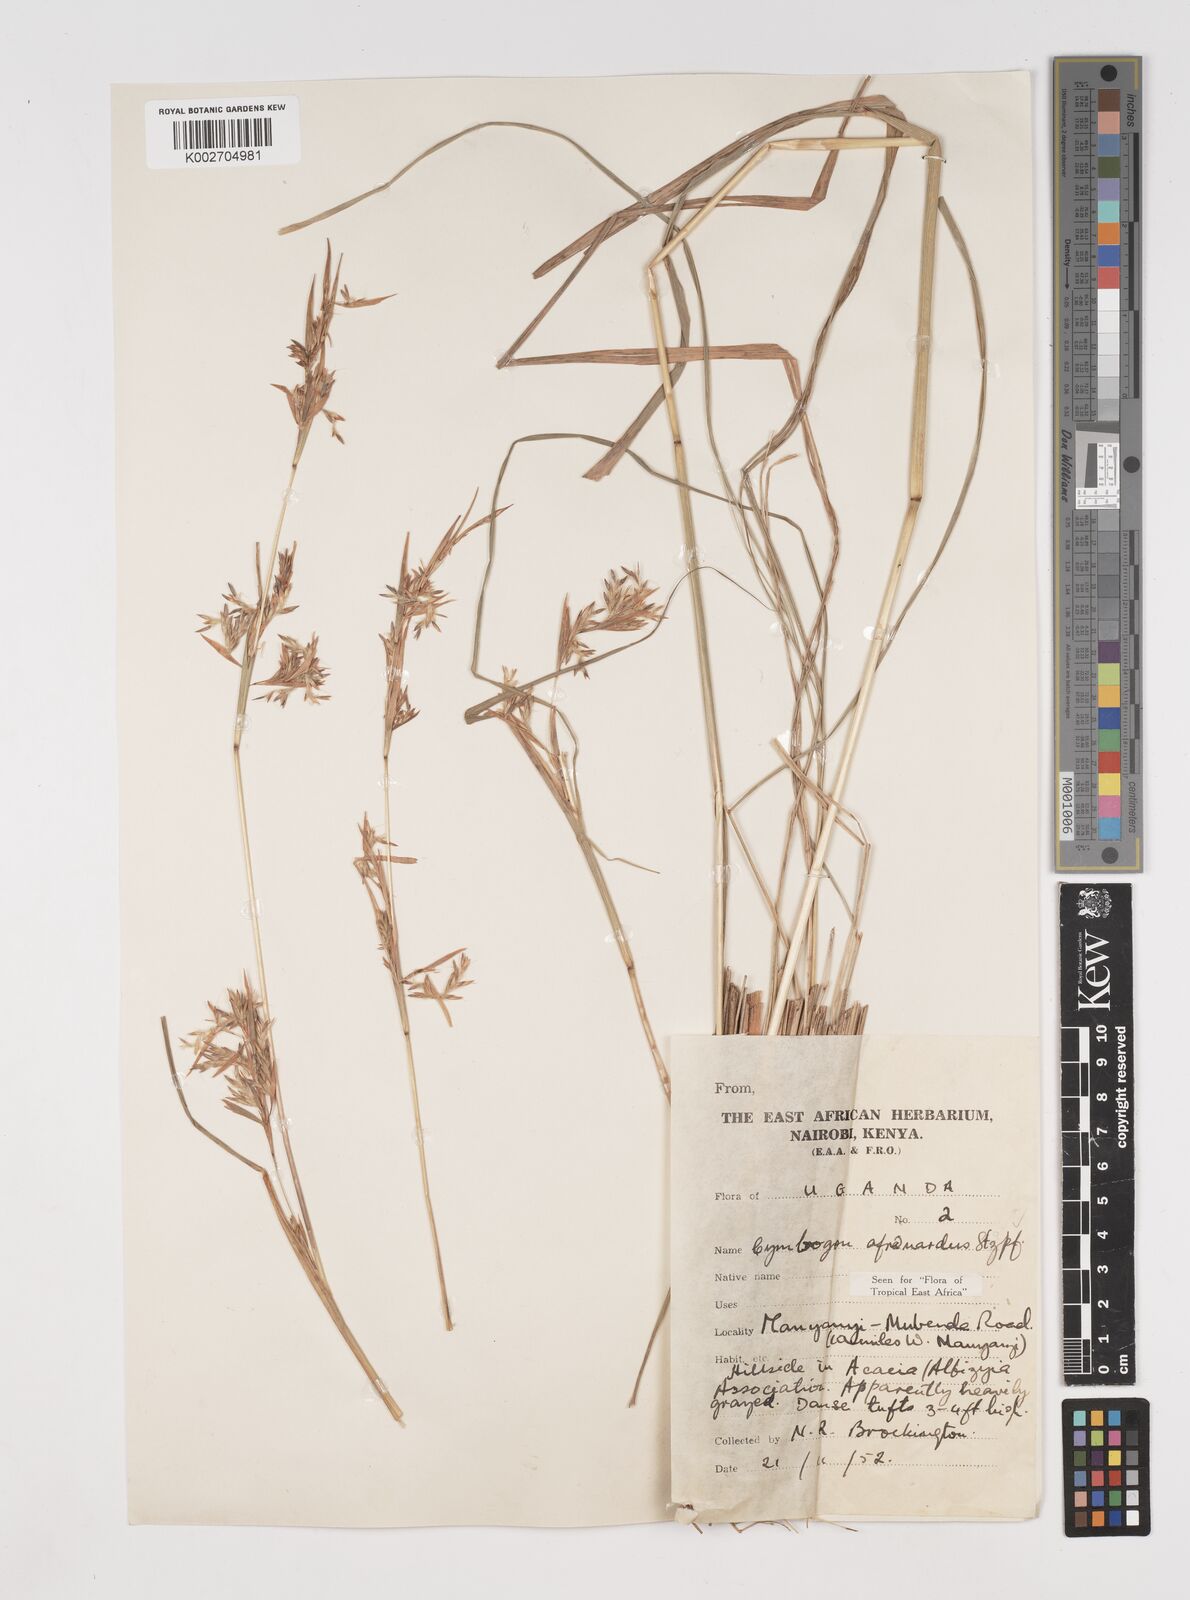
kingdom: Plantae
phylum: Tracheophyta
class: Liliopsida
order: Poales
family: Poaceae
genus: Cymbopogon
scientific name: Cymbopogon nardus
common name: Giant turpentine grass
